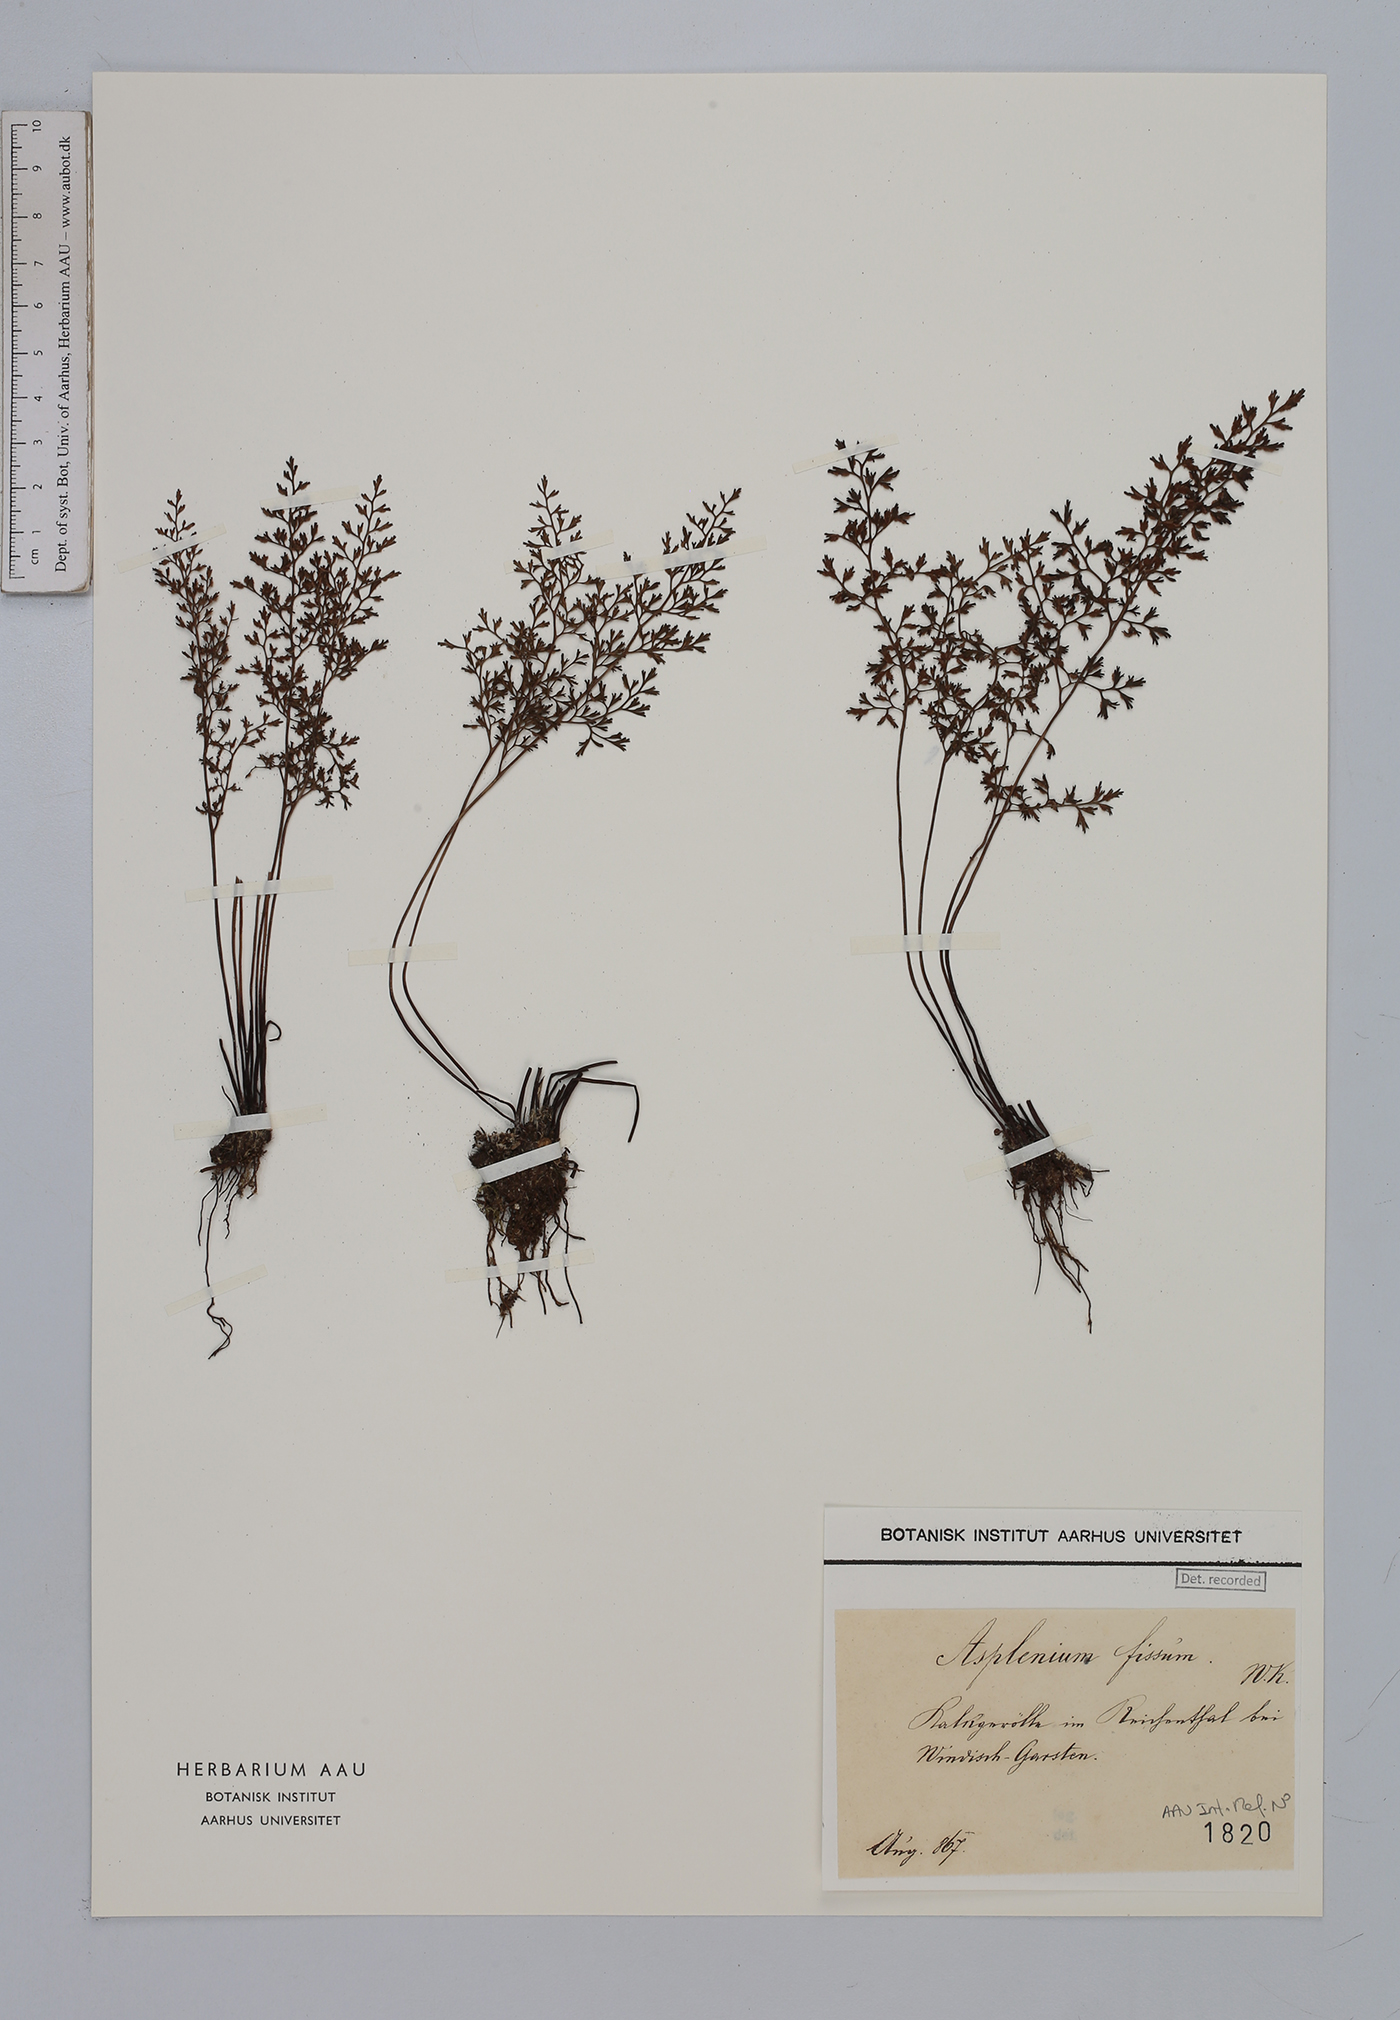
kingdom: Plantae
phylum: Tracheophyta
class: Polypodiopsida
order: Polypodiales
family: Aspleniaceae
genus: Asplenium
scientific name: Asplenium fissum
